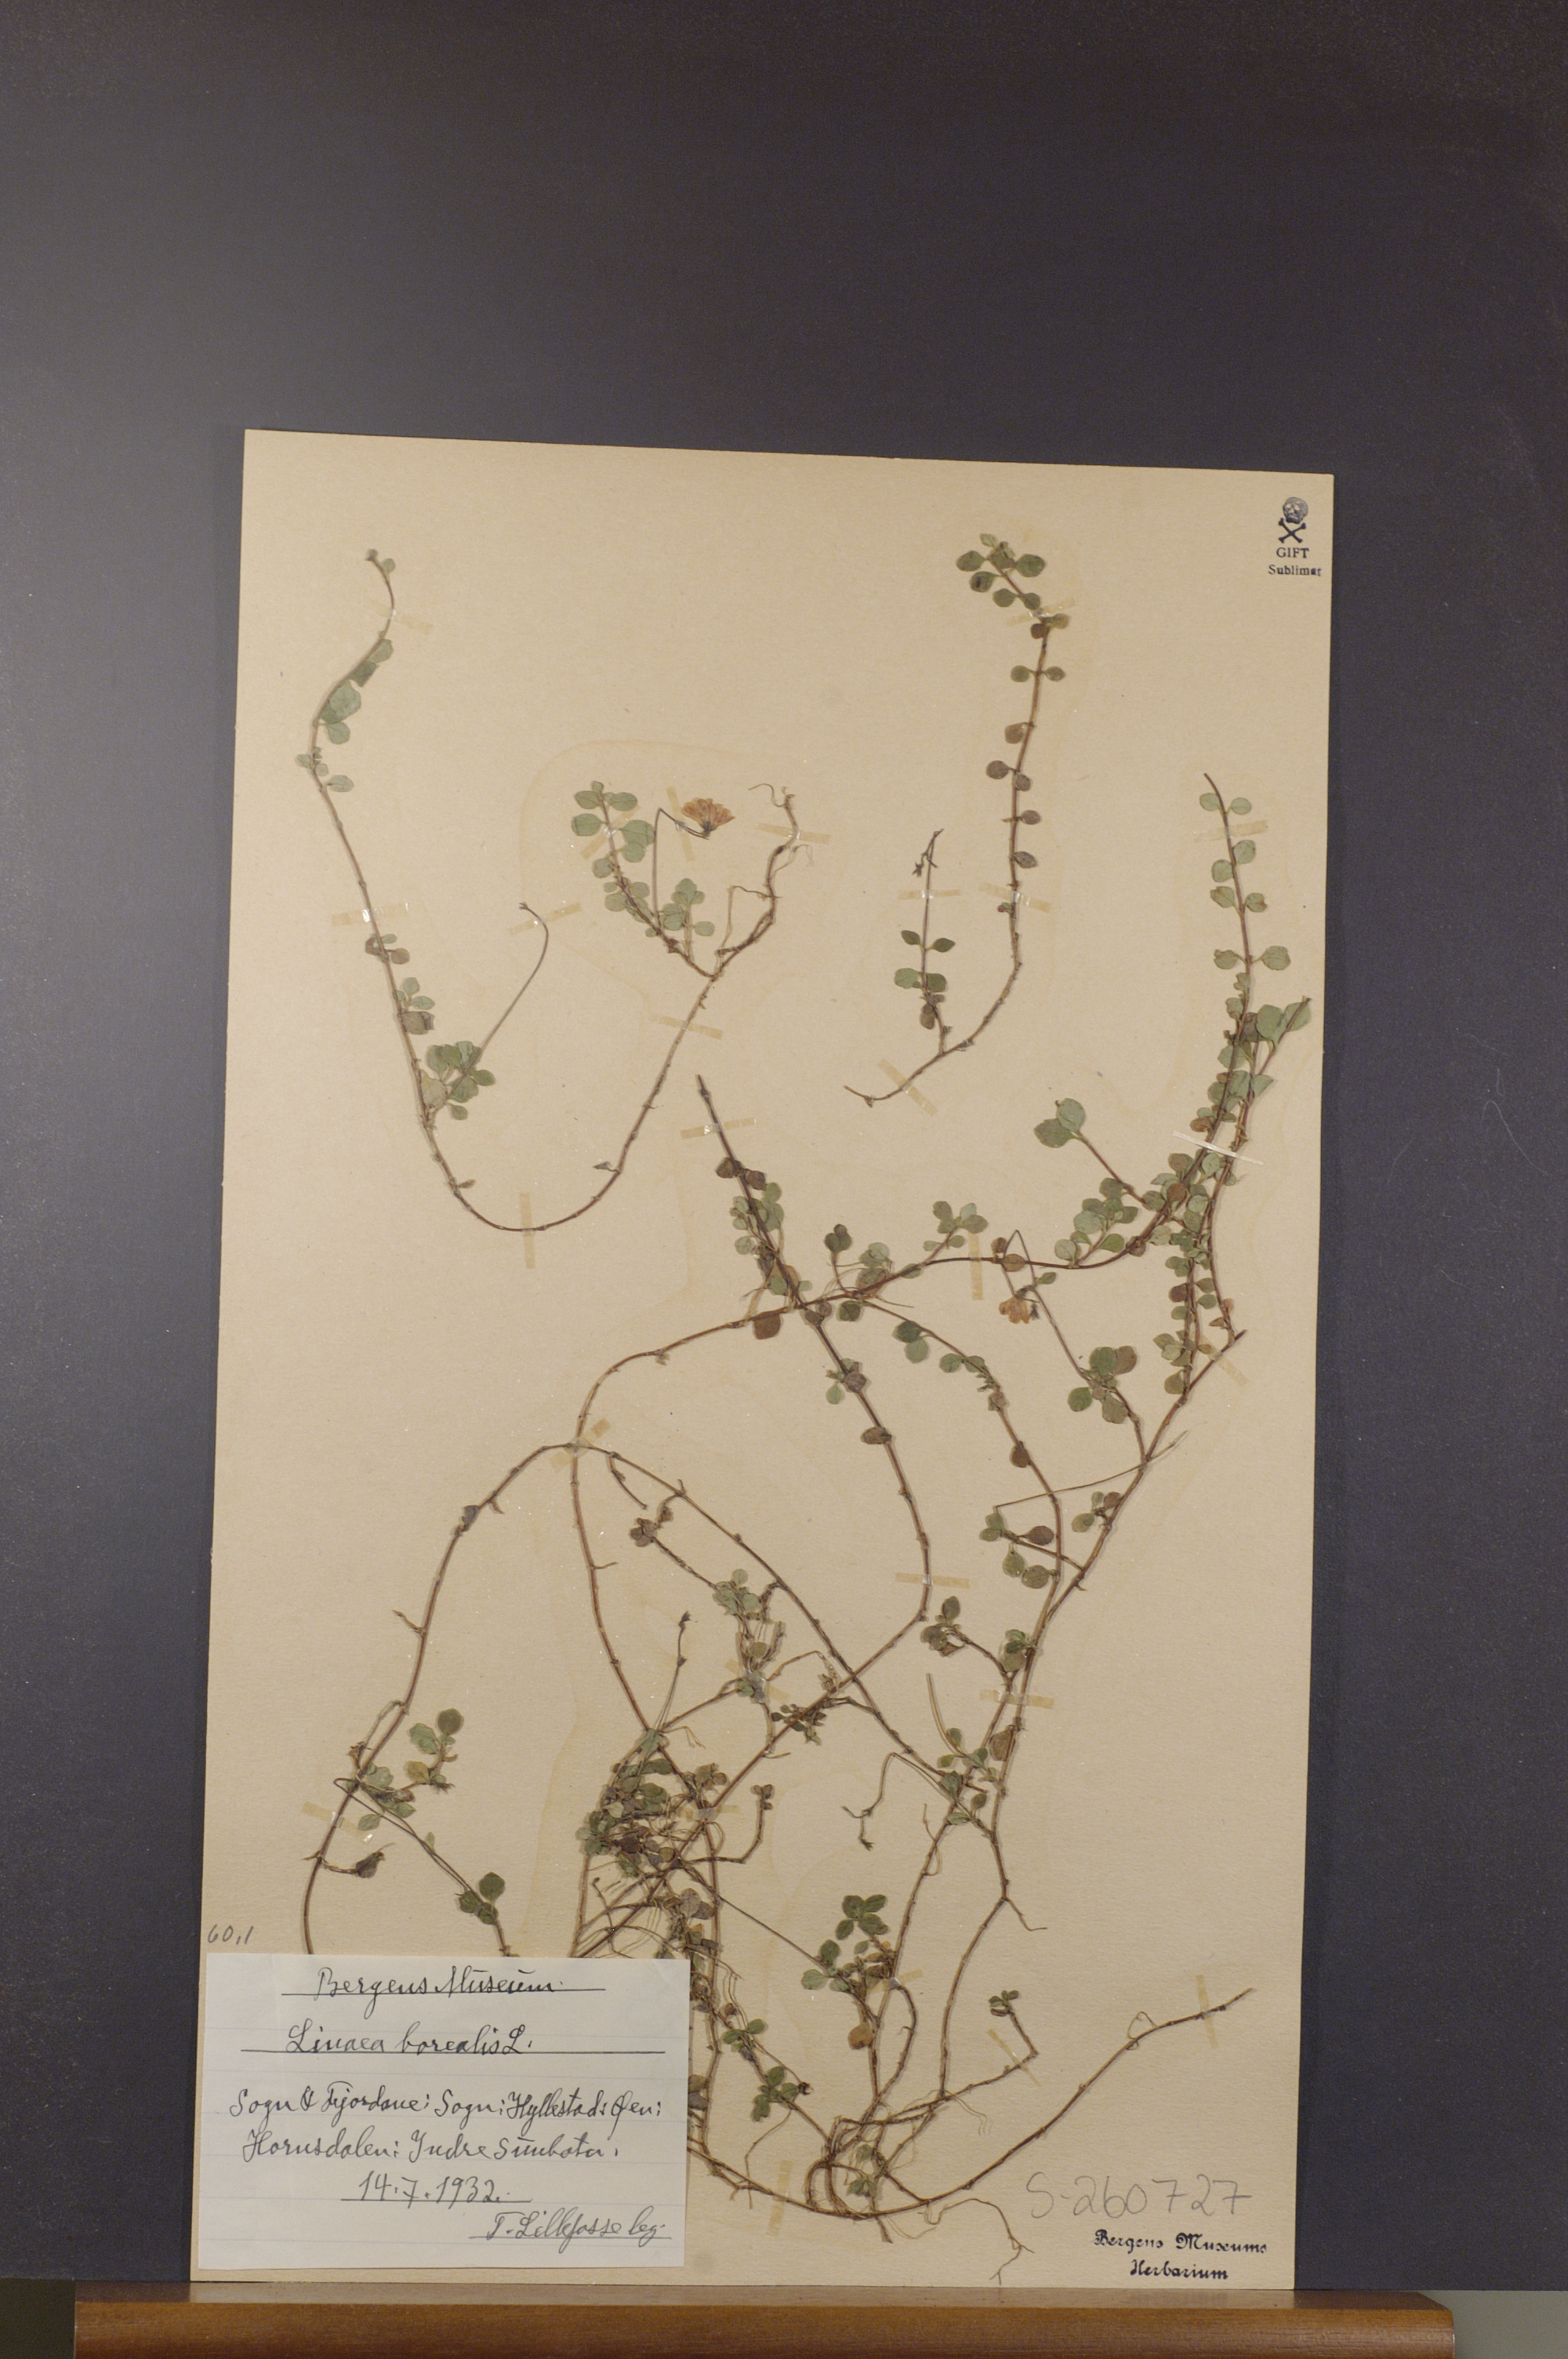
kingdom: Plantae
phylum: Tracheophyta
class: Magnoliopsida
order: Dipsacales
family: Caprifoliaceae
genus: Linnaea
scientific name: Linnaea borealis
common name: Twinflower
